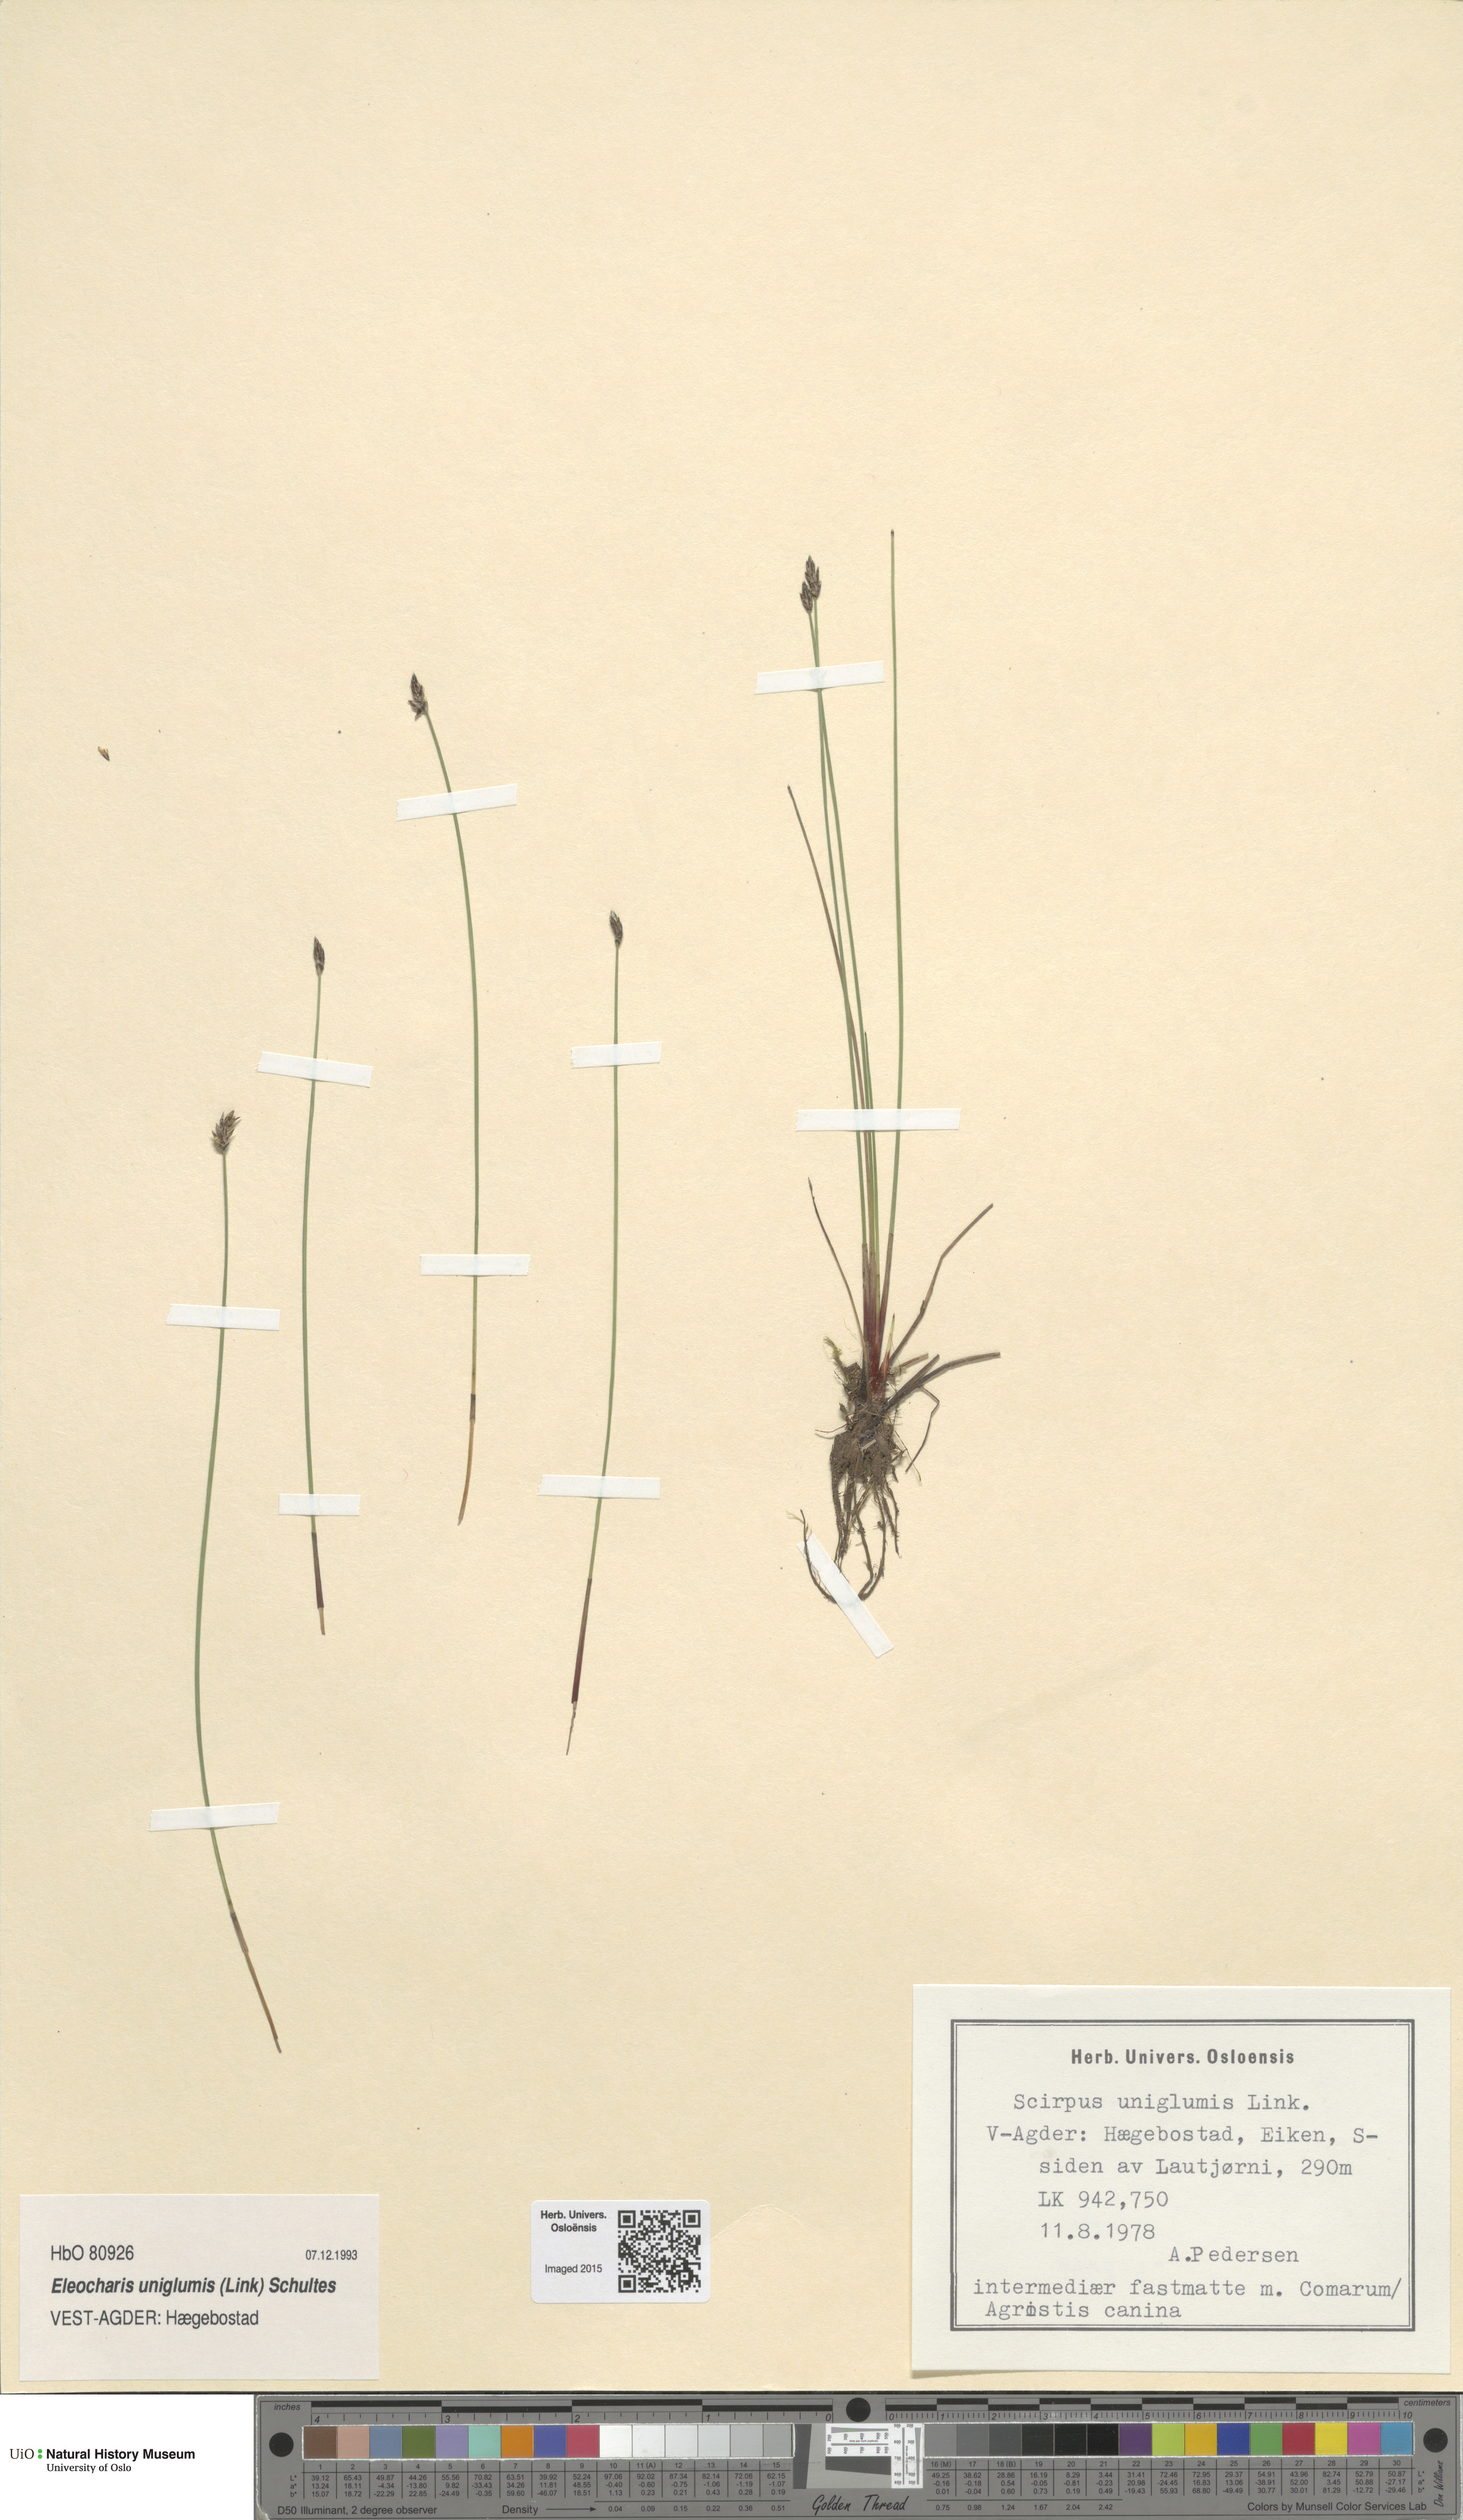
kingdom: Plantae
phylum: Tracheophyta
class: Liliopsida
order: Poales
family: Cyperaceae
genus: Eleocharis
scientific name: Eleocharis uniglumis
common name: Slender spike-rush
